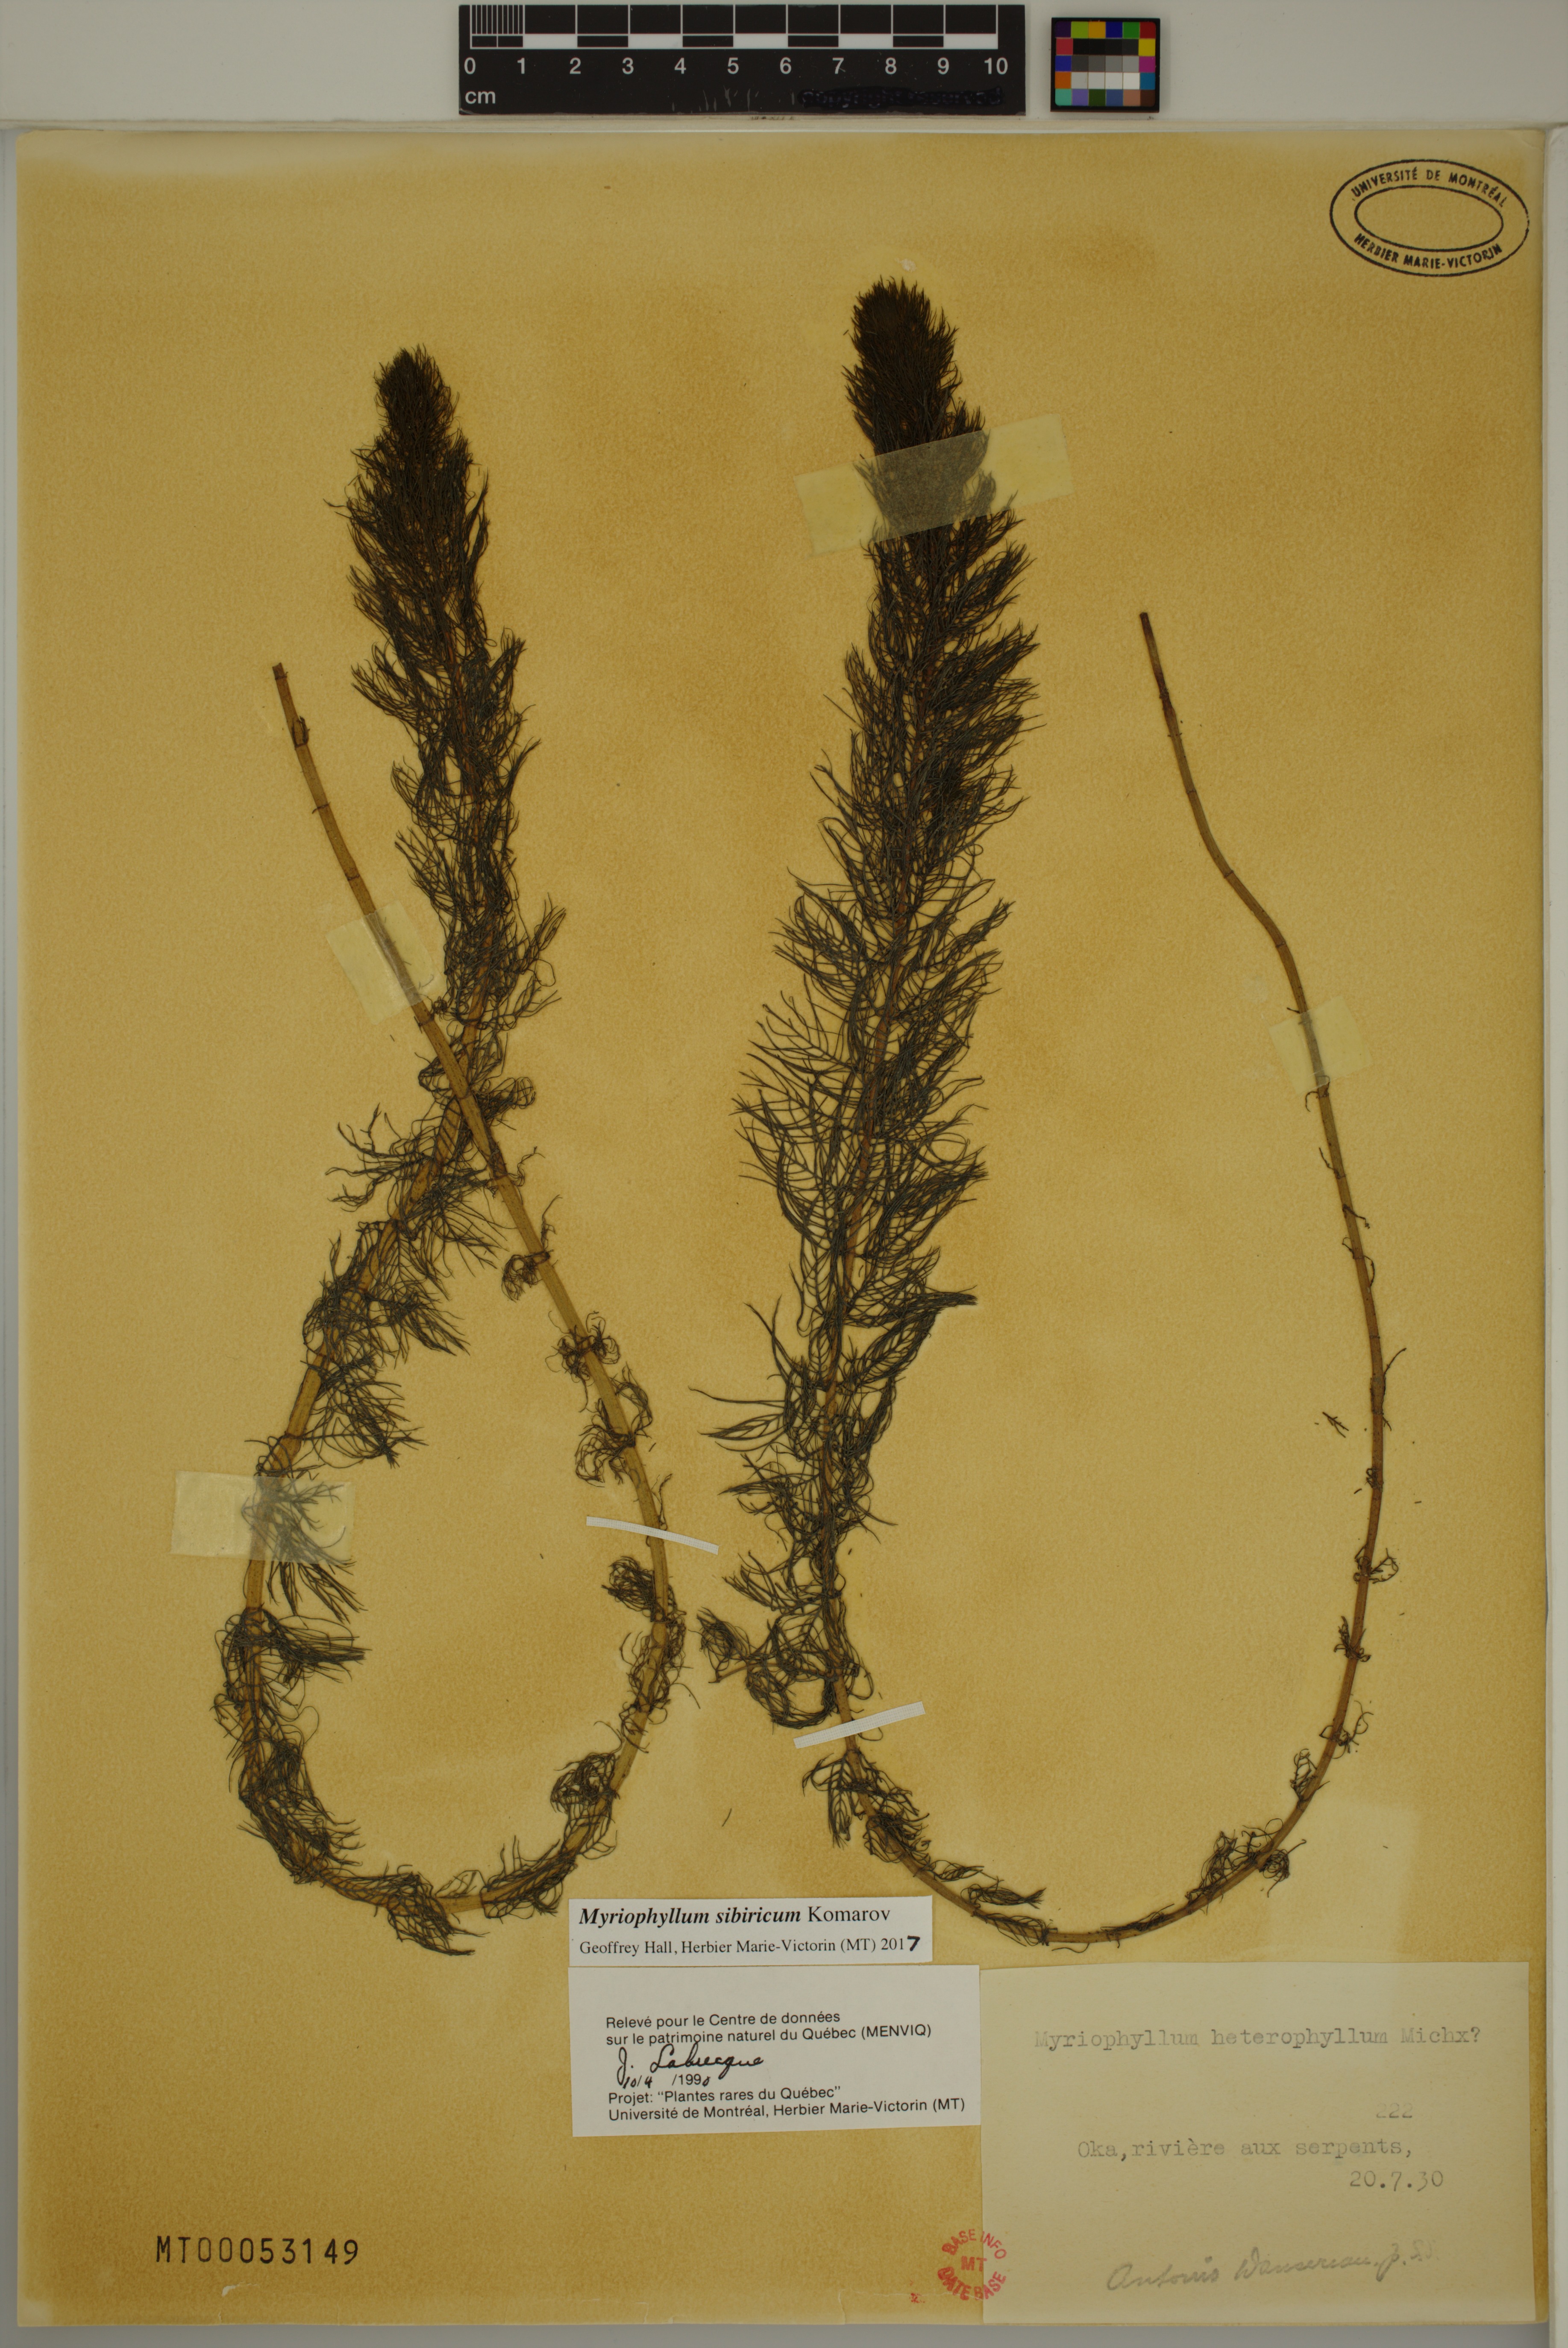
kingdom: Plantae
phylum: Tracheophyta
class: Magnoliopsida
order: Saxifragales
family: Haloragaceae
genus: Myriophyllum
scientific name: Myriophyllum sibiricum
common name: Siberian water-milfoil
